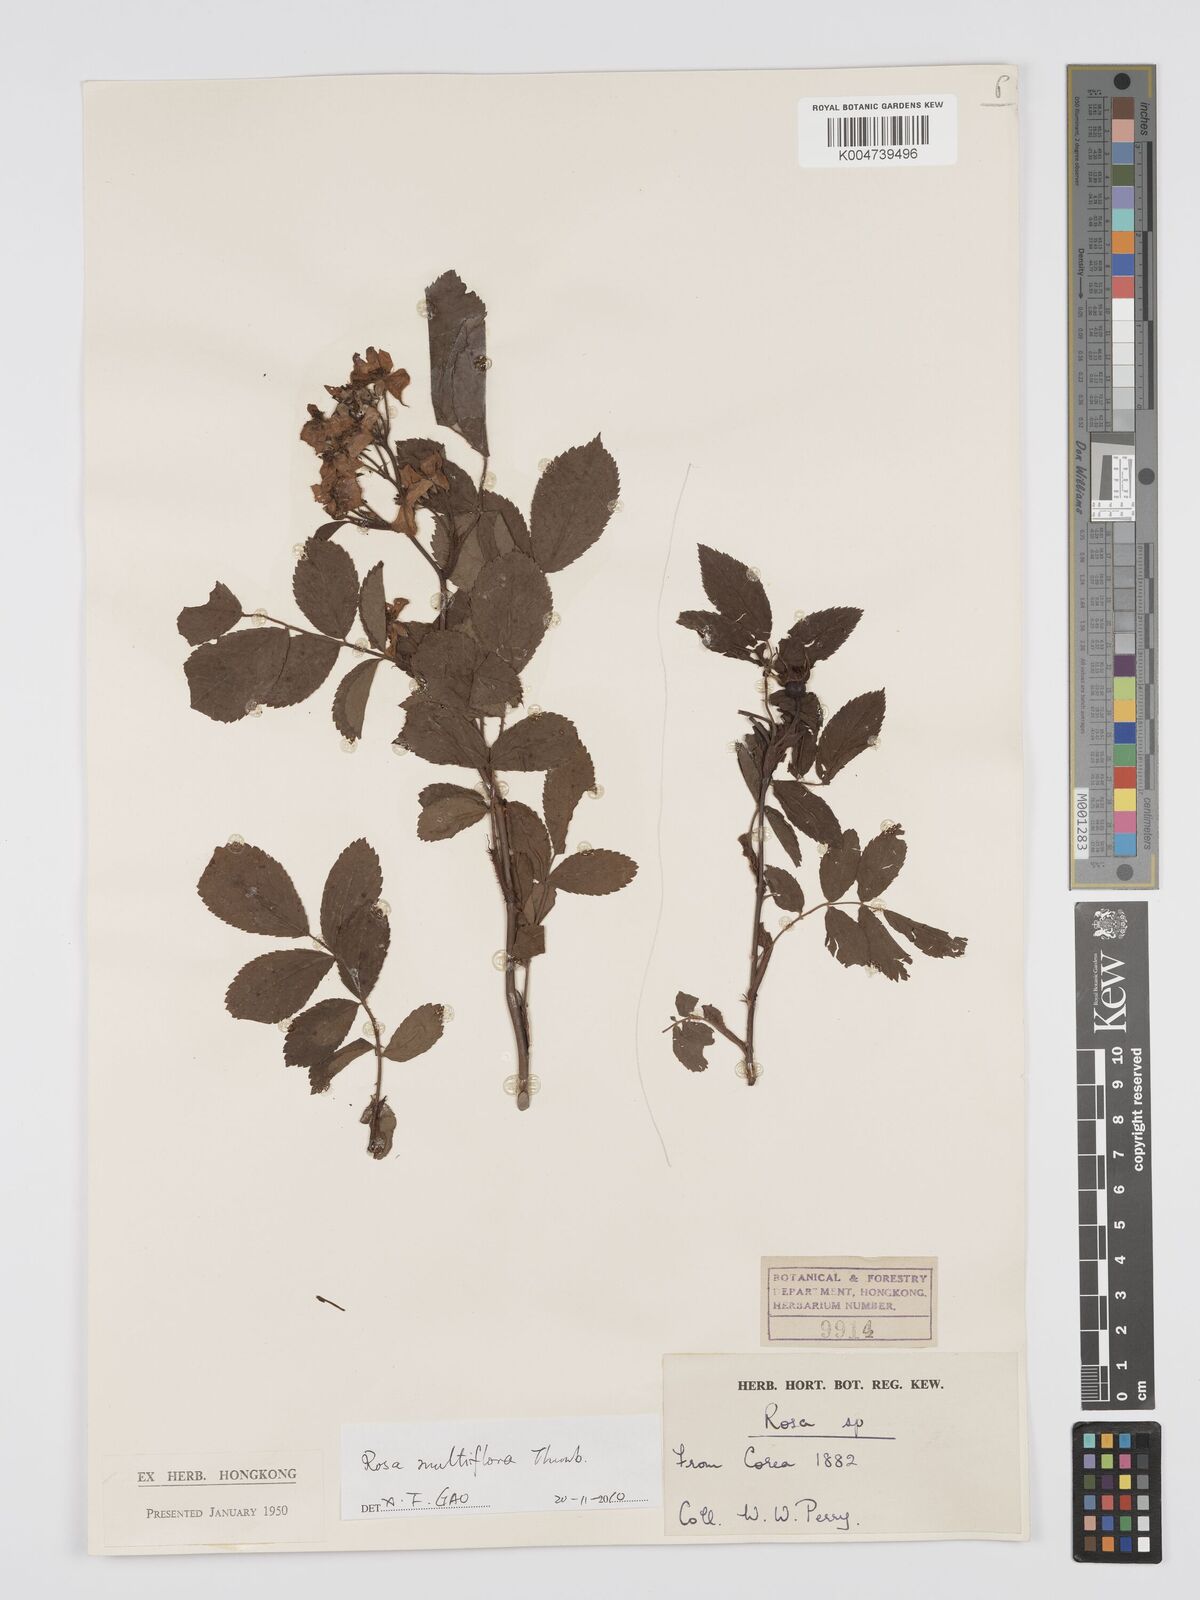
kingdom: Plantae
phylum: Tracheophyta
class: Magnoliopsida
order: Rosales
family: Rosaceae
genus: Rosa
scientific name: Rosa
